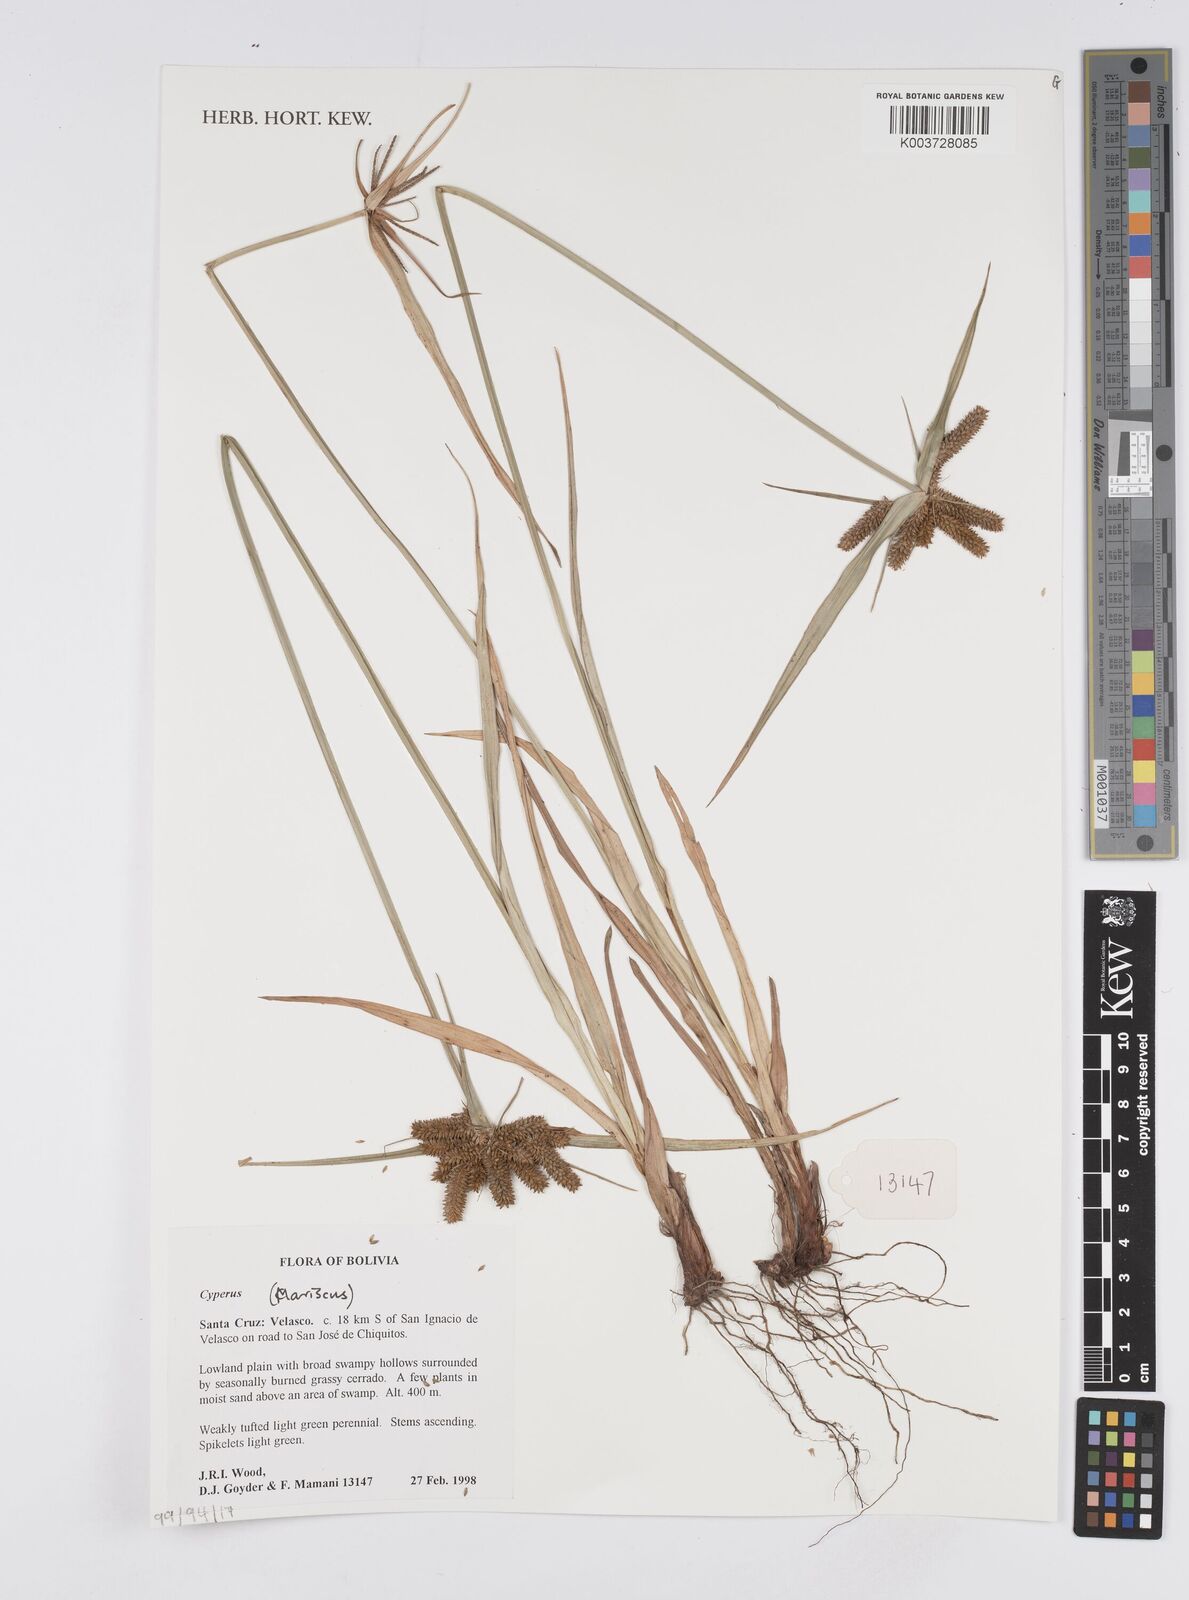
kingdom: Plantae
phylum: Tracheophyta
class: Liliopsida
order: Poales
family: Cyperaceae
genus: Cyperus
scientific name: Cyperus
